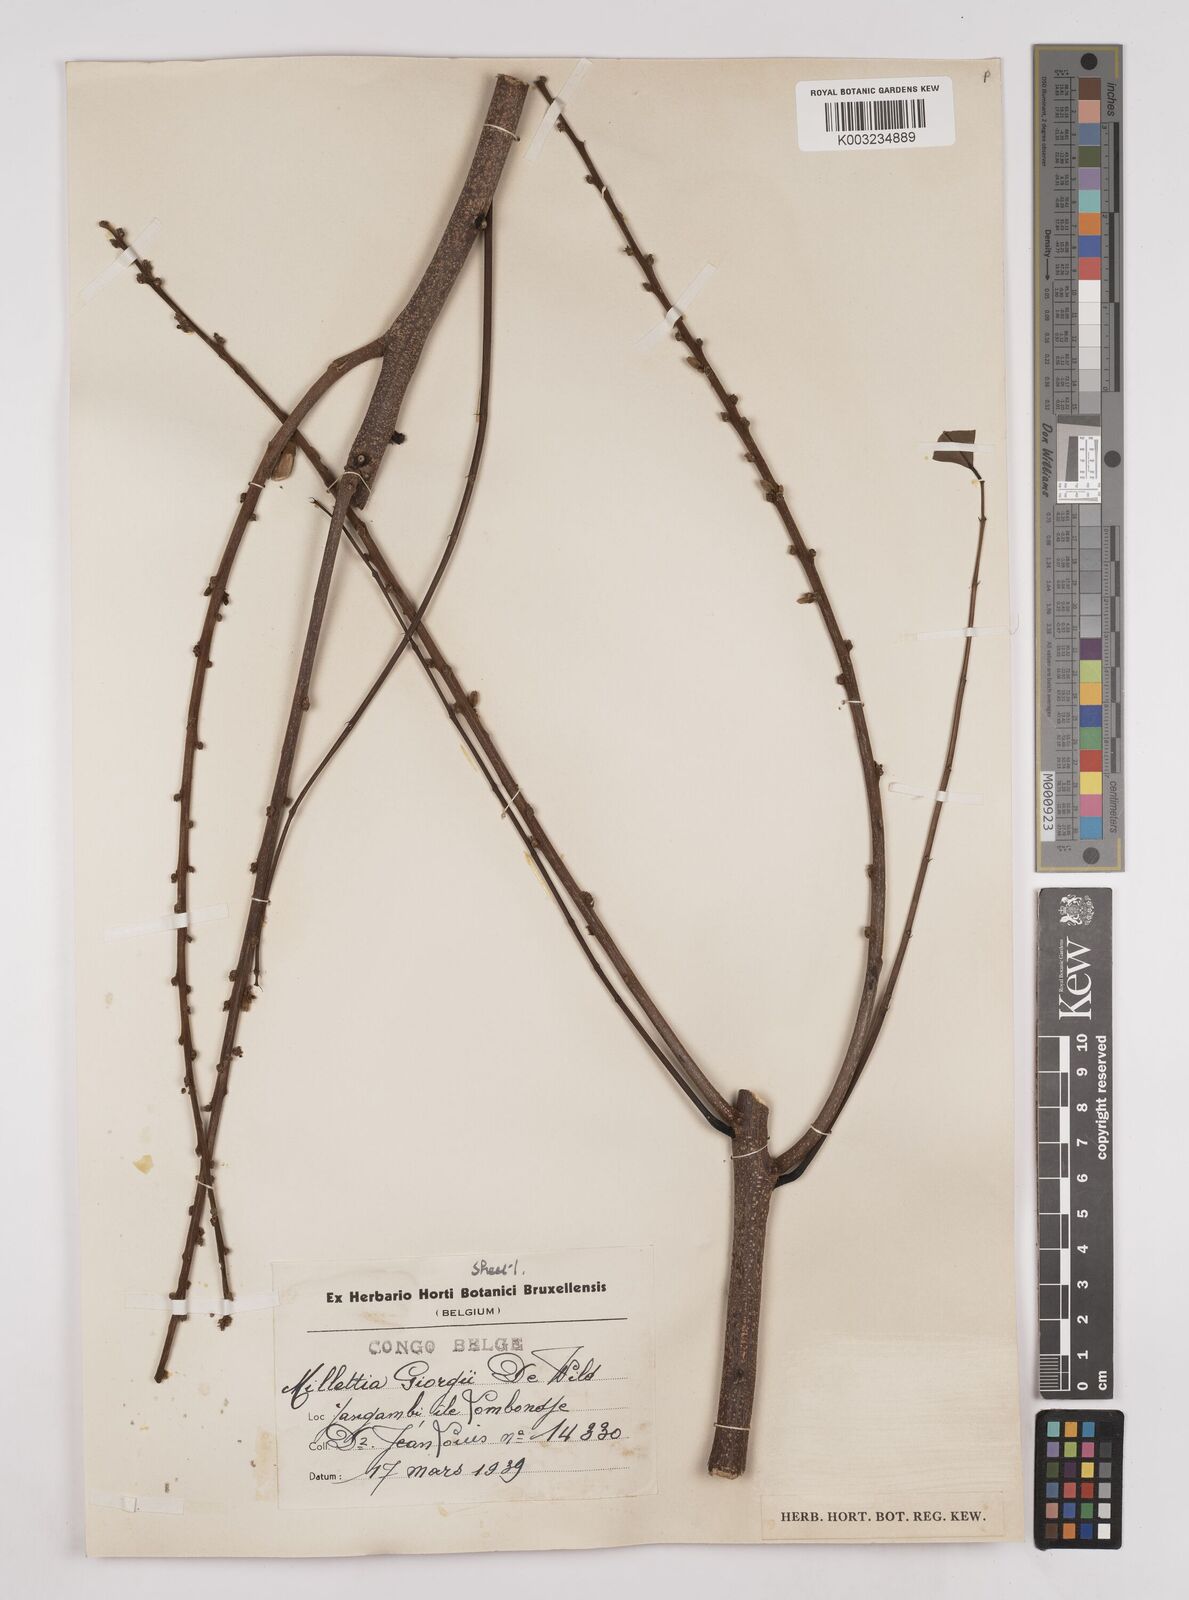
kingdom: Plantae
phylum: Tracheophyta
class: Magnoliopsida
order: Fabales
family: Fabaceae
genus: Millettia
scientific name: Millettia drastica
